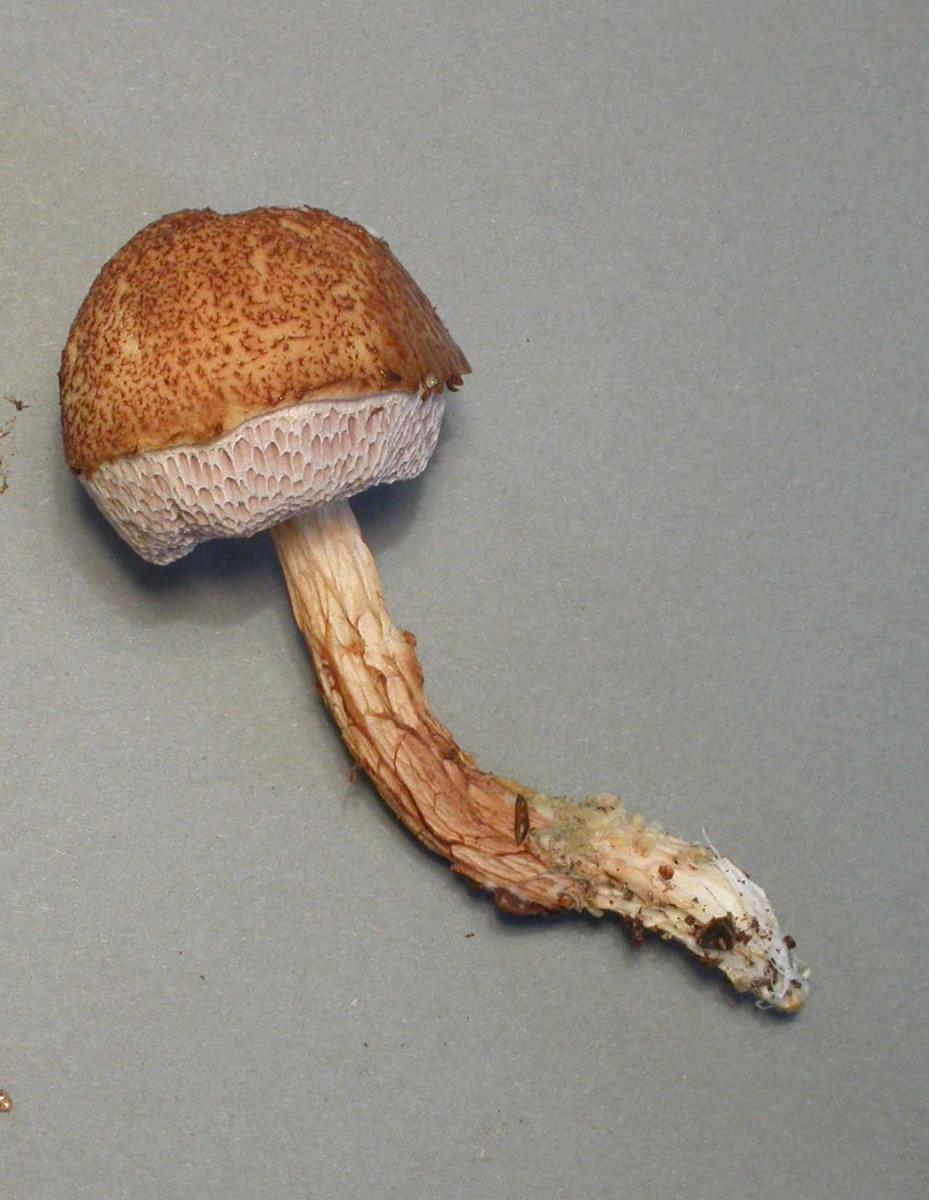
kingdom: Fungi
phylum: Basidiomycota
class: Agaricomycetes
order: Boletales
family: Boletaceae
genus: Austroboletus
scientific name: Austroboletus lacunosus
